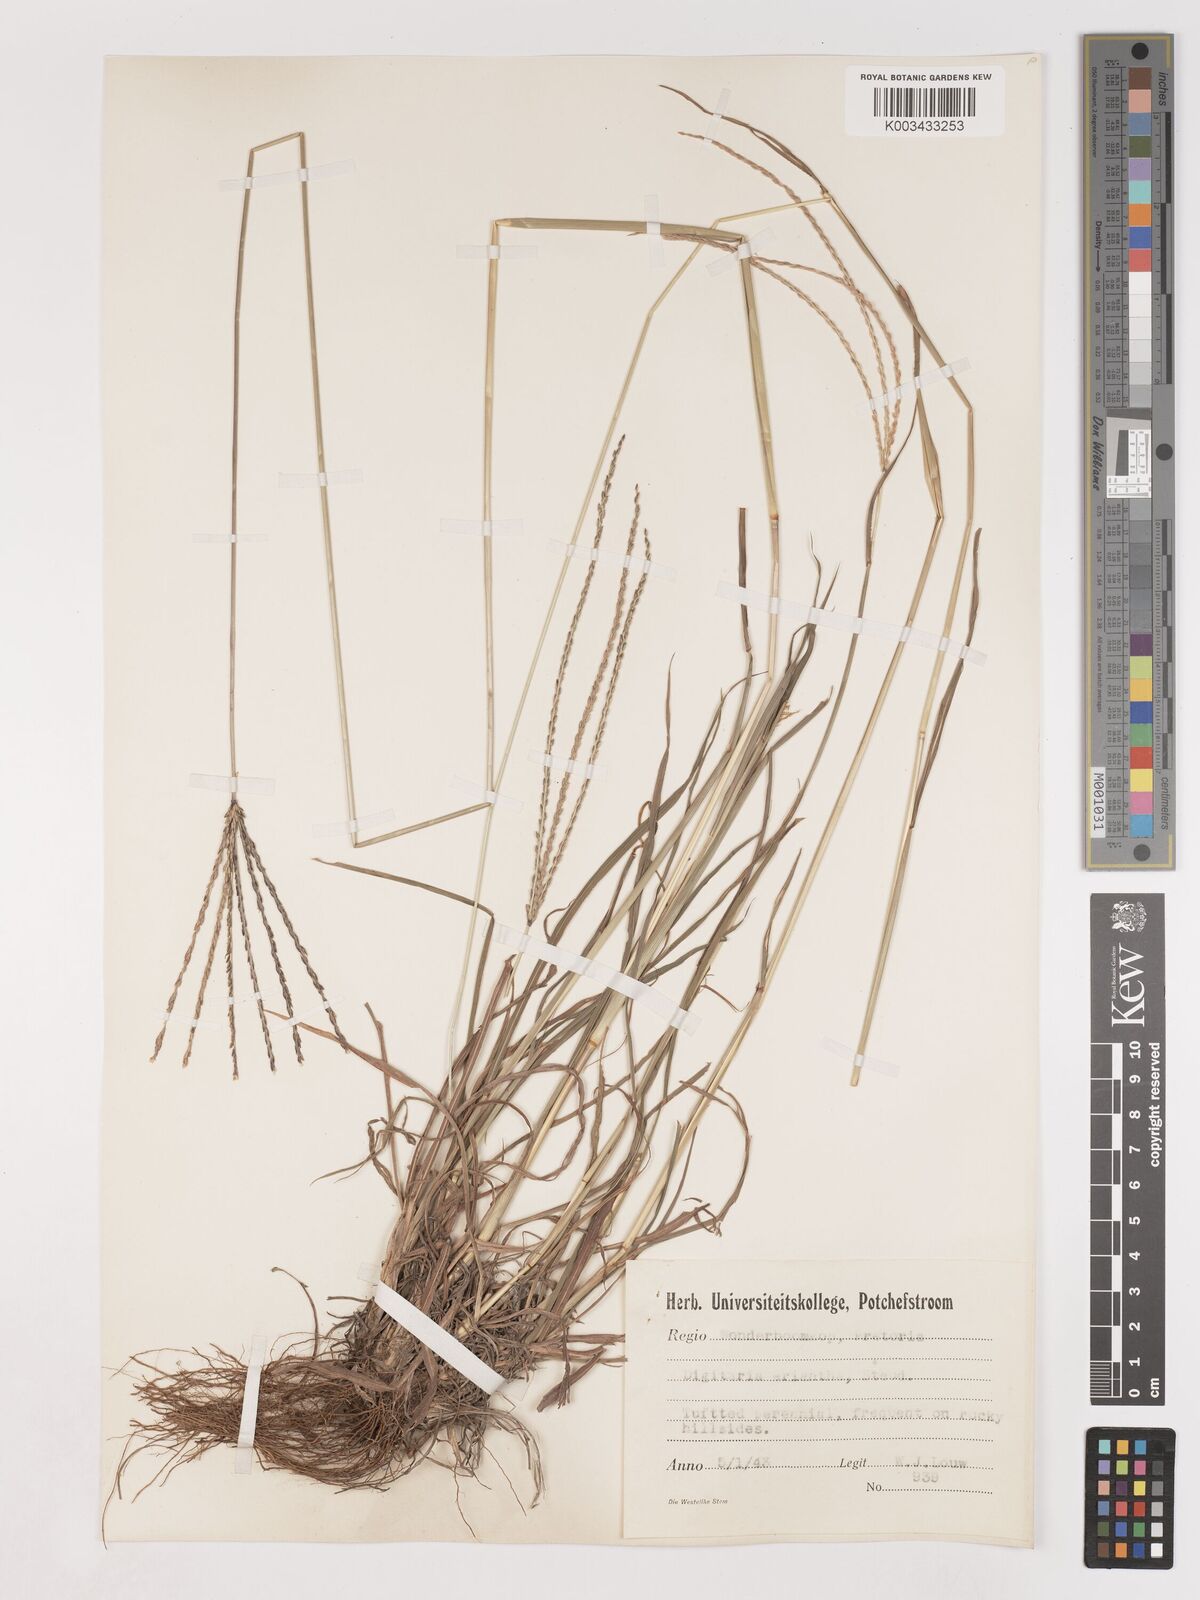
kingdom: Plantae
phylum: Tracheophyta
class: Liliopsida
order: Poales
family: Poaceae
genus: Digitaria
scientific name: Digitaria eriantha
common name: Digitgrass
